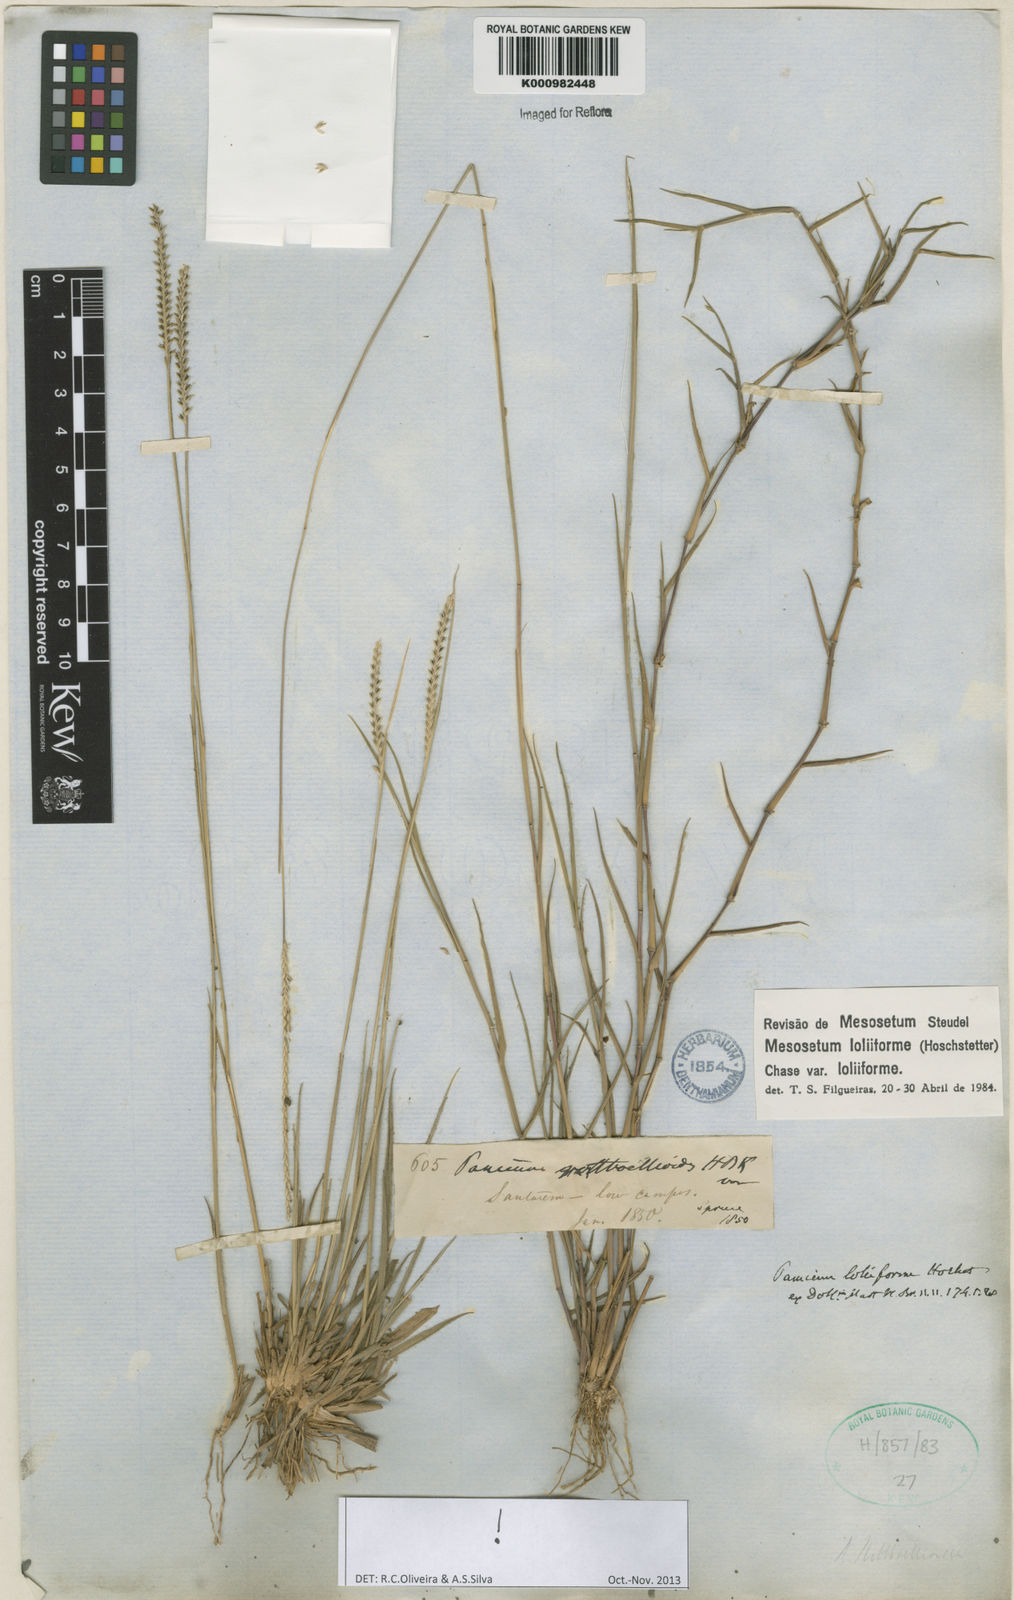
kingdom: Plantae
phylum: Tracheophyta
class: Liliopsida
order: Poales
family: Poaceae
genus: Mesosetum
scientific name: Mesosetum
